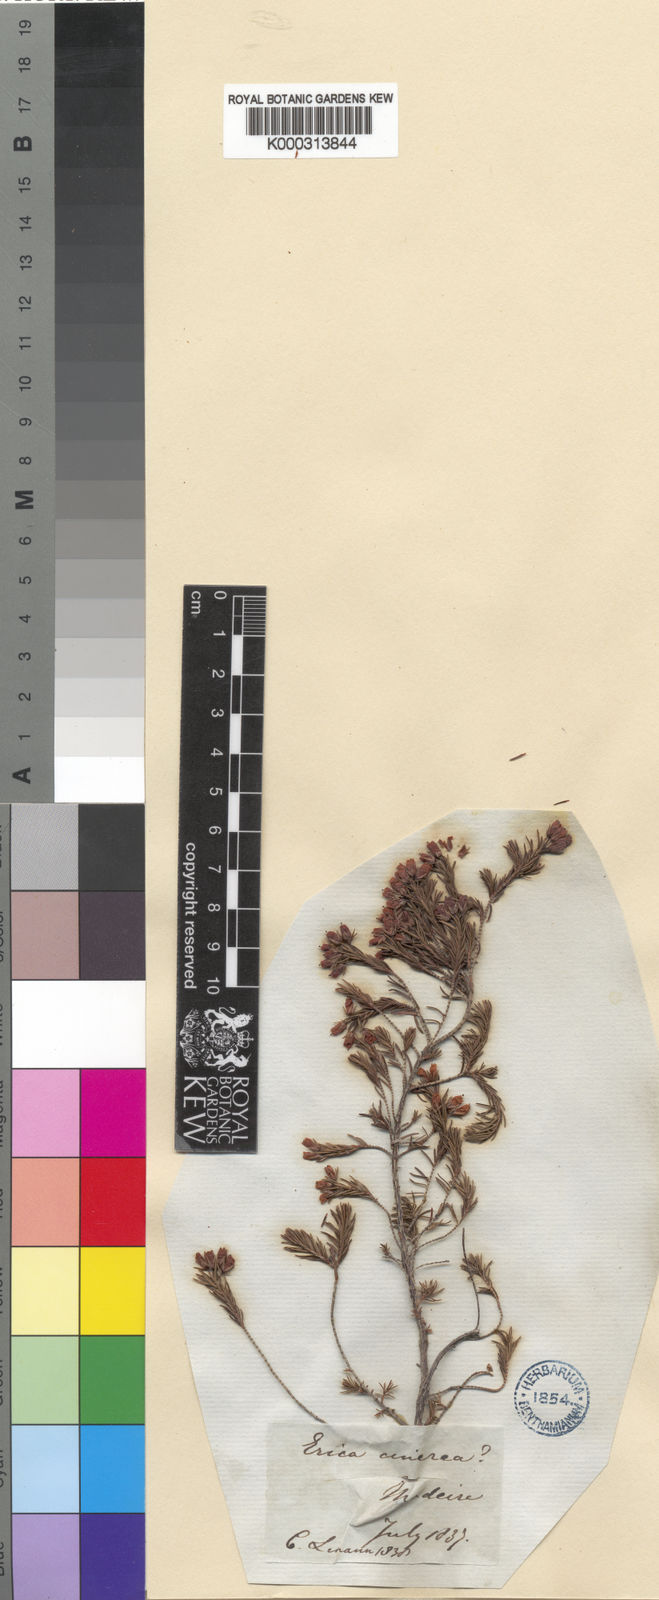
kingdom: Plantae
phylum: Tracheophyta
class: Magnoliopsida
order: Ericales
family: Ericaceae
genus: Erica
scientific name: Erica maderensis
